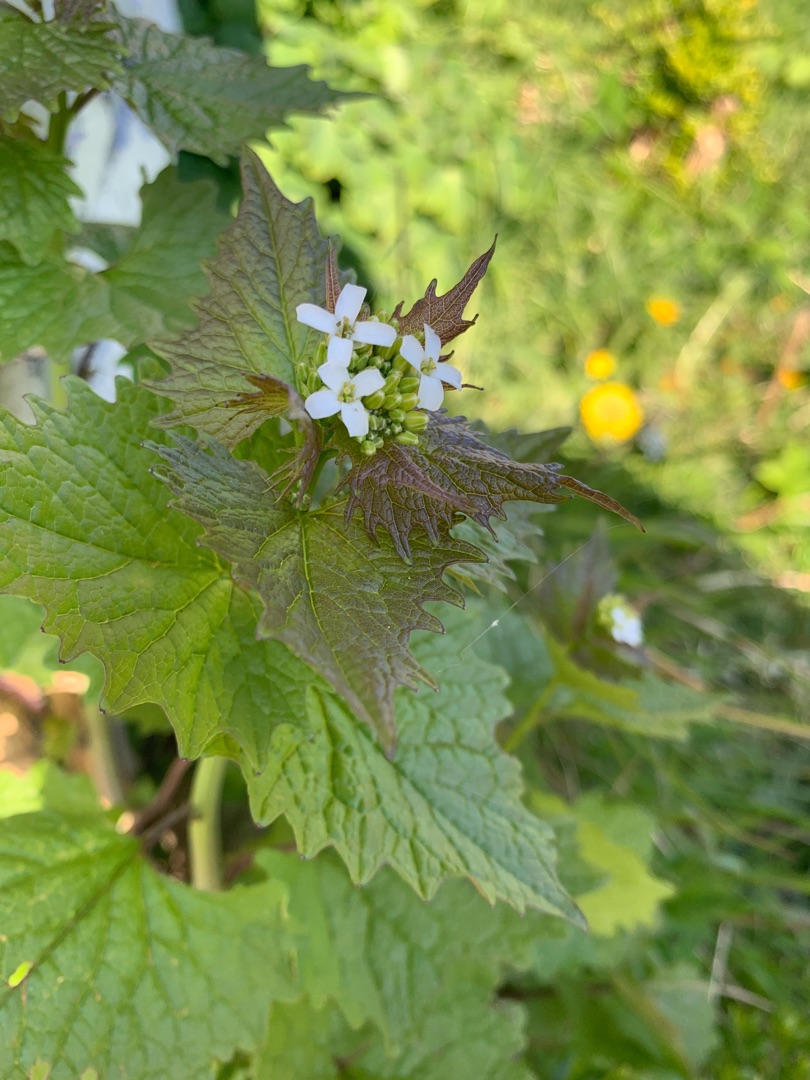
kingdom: Plantae
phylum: Tracheophyta
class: Magnoliopsida
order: Brassicales
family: Brassicaceae
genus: Alliaria
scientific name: Alliaria petiolata
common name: Løgkarse
